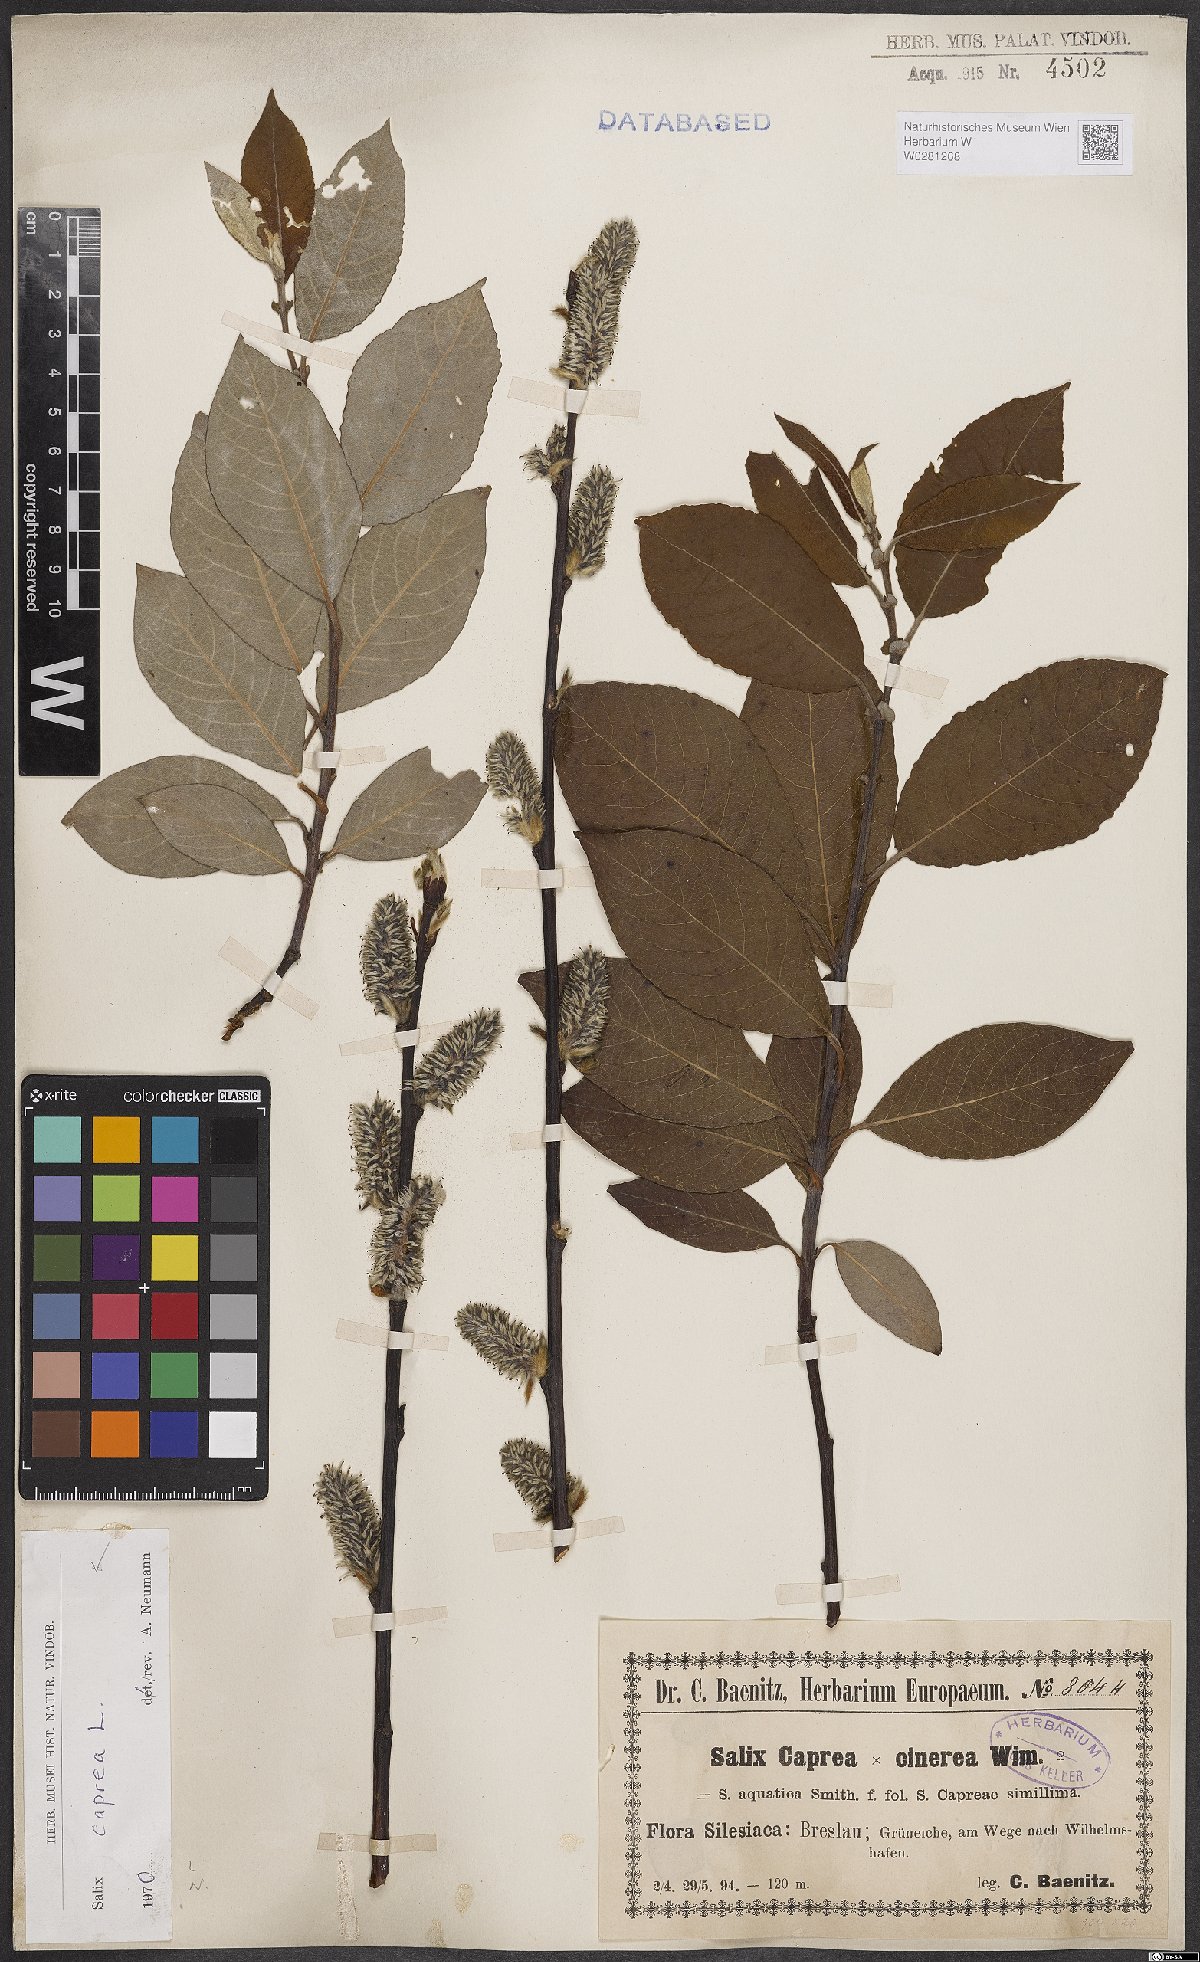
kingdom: Plantae
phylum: Tracheophyta
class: Magnoliopsida
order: Malpighiales
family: Salicaceae
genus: Salix
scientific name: Salix caprea
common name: Goat willow
